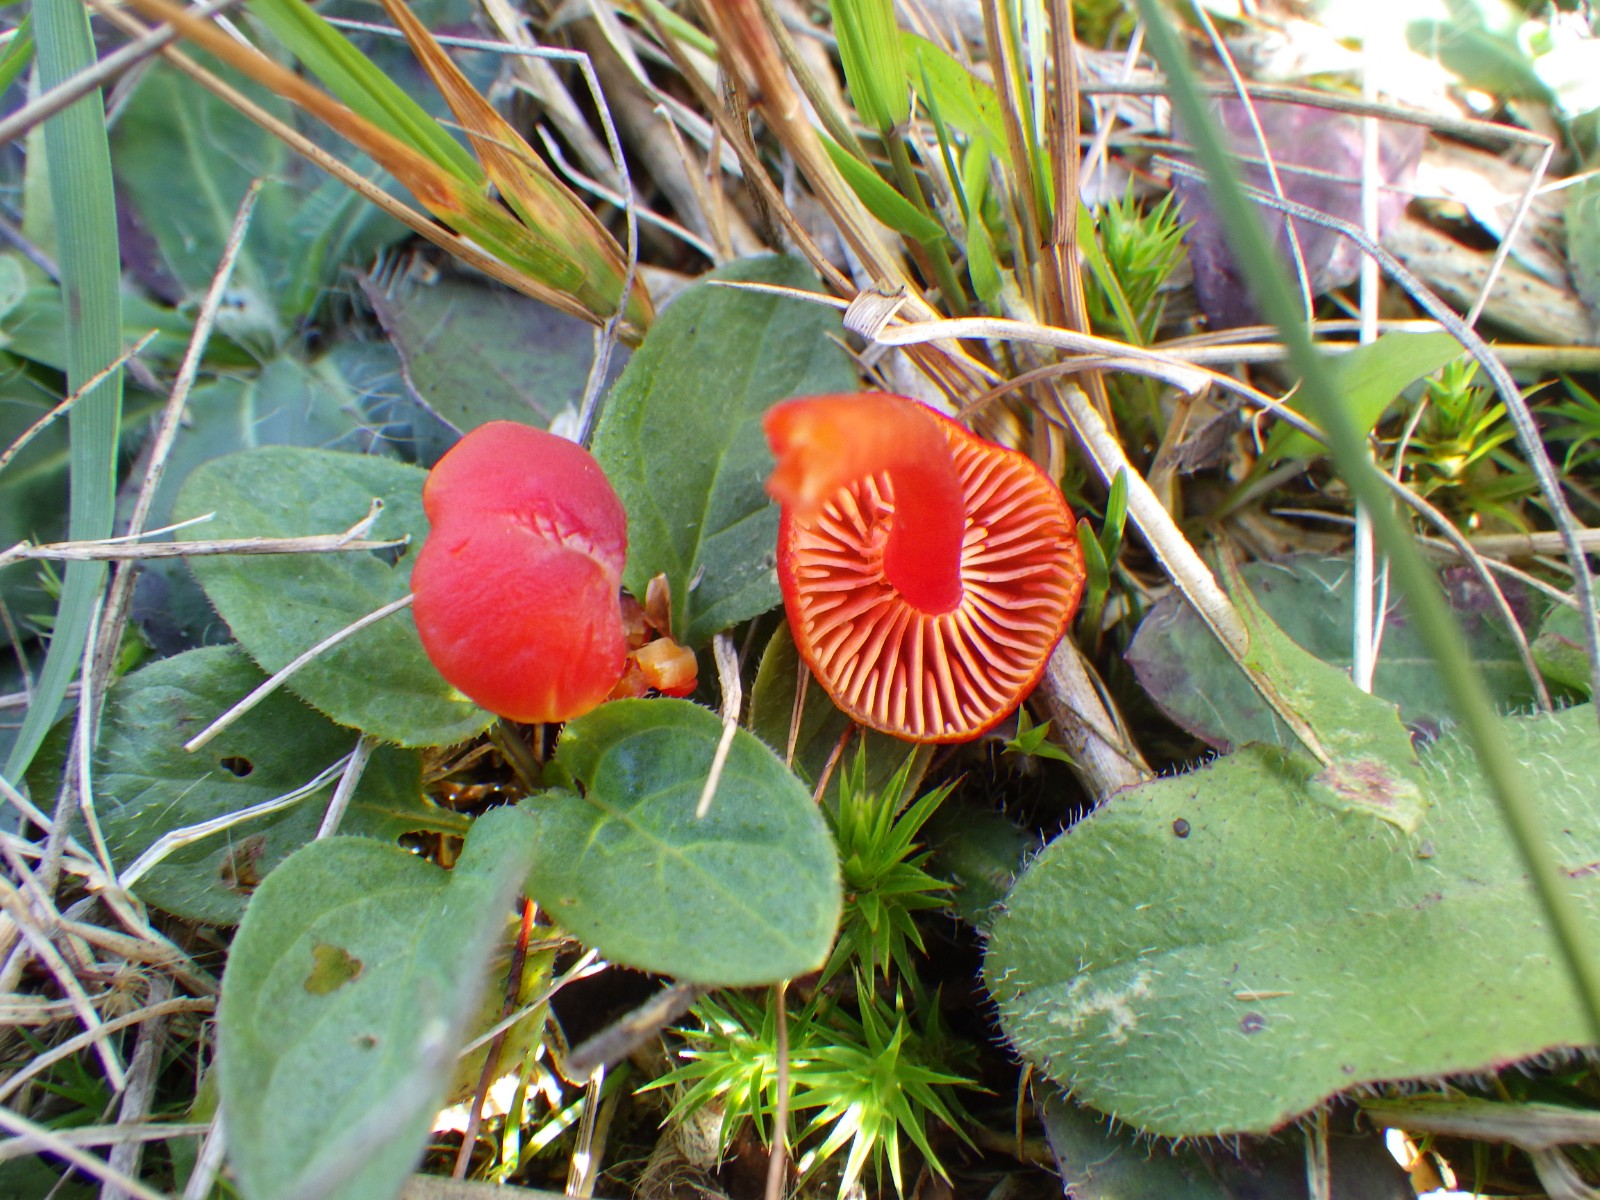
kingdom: Fungi
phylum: Basidiomycota
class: Agaricomycetes
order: Agaricales
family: Hygrophoraceae
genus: Hygrocybe
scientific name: Hygrocybe phaeococcinea
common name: sortdugget vokshat
